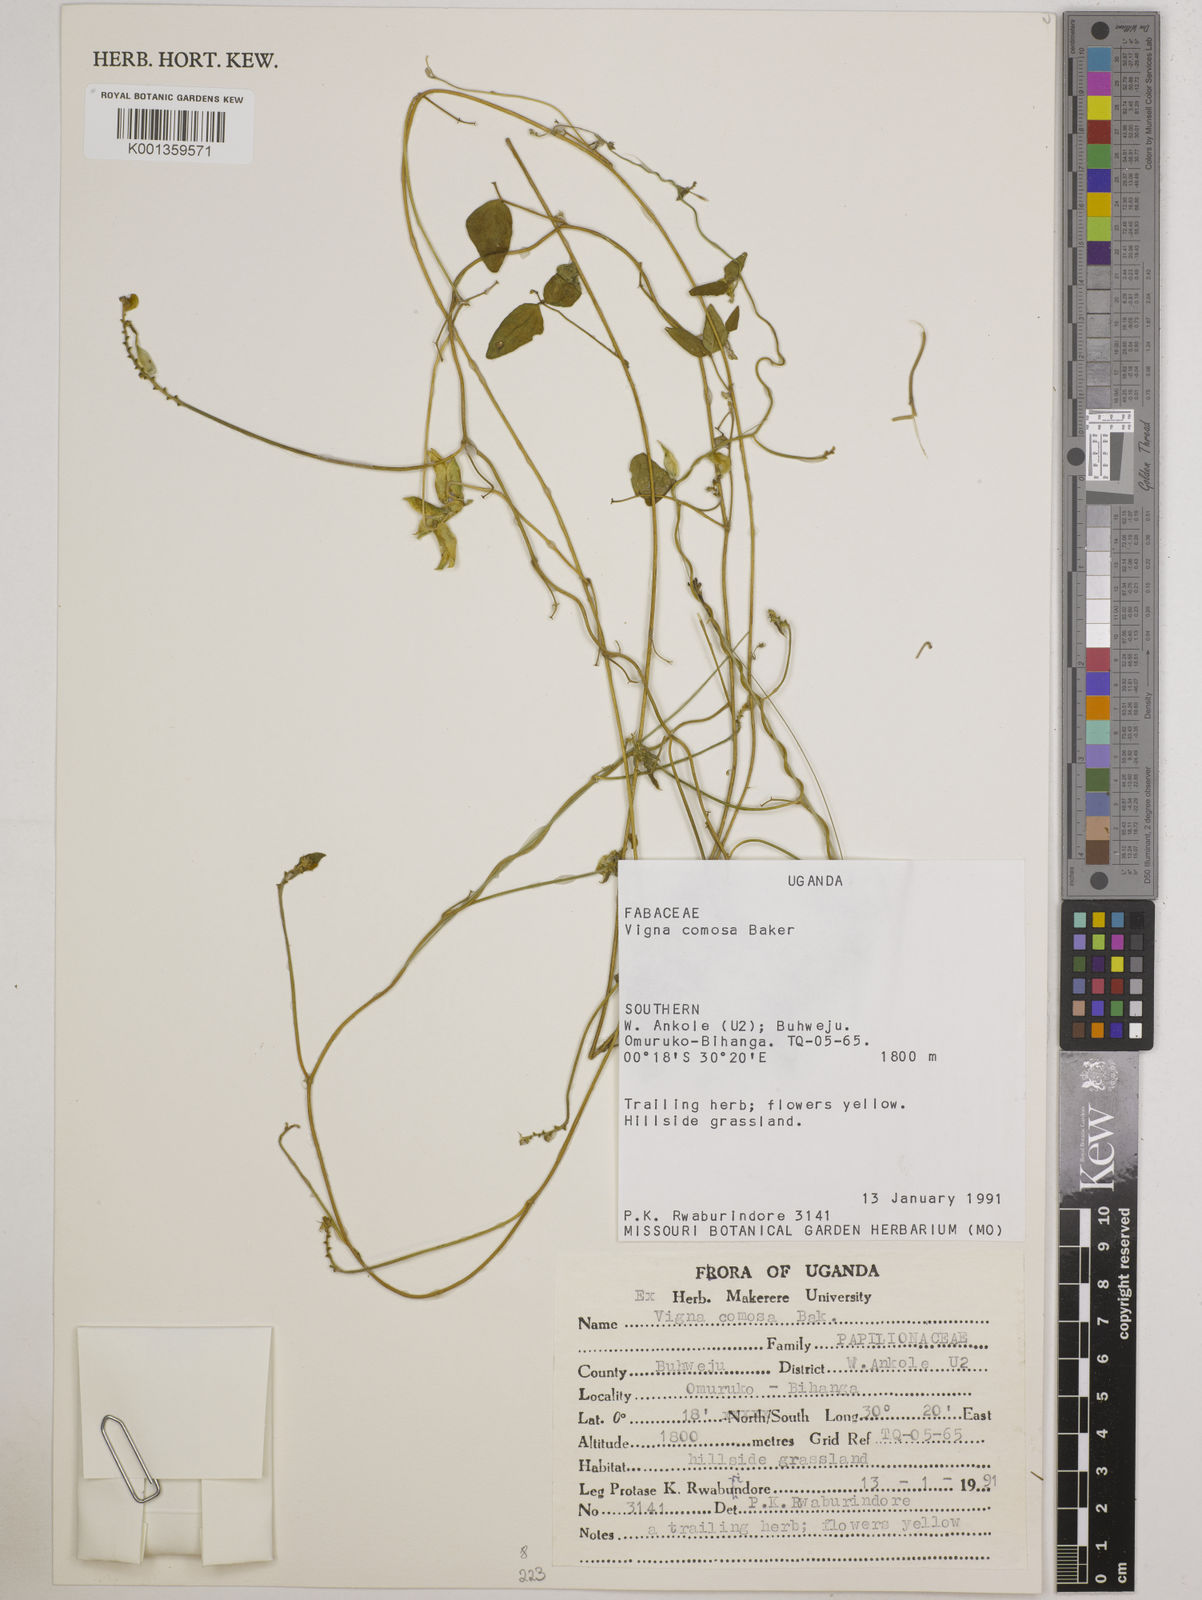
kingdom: Plantae
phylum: Tracheophyta
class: Magnoliopsida
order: Fabales
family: Fabaceae
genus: Vigna
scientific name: Vigna comosa
